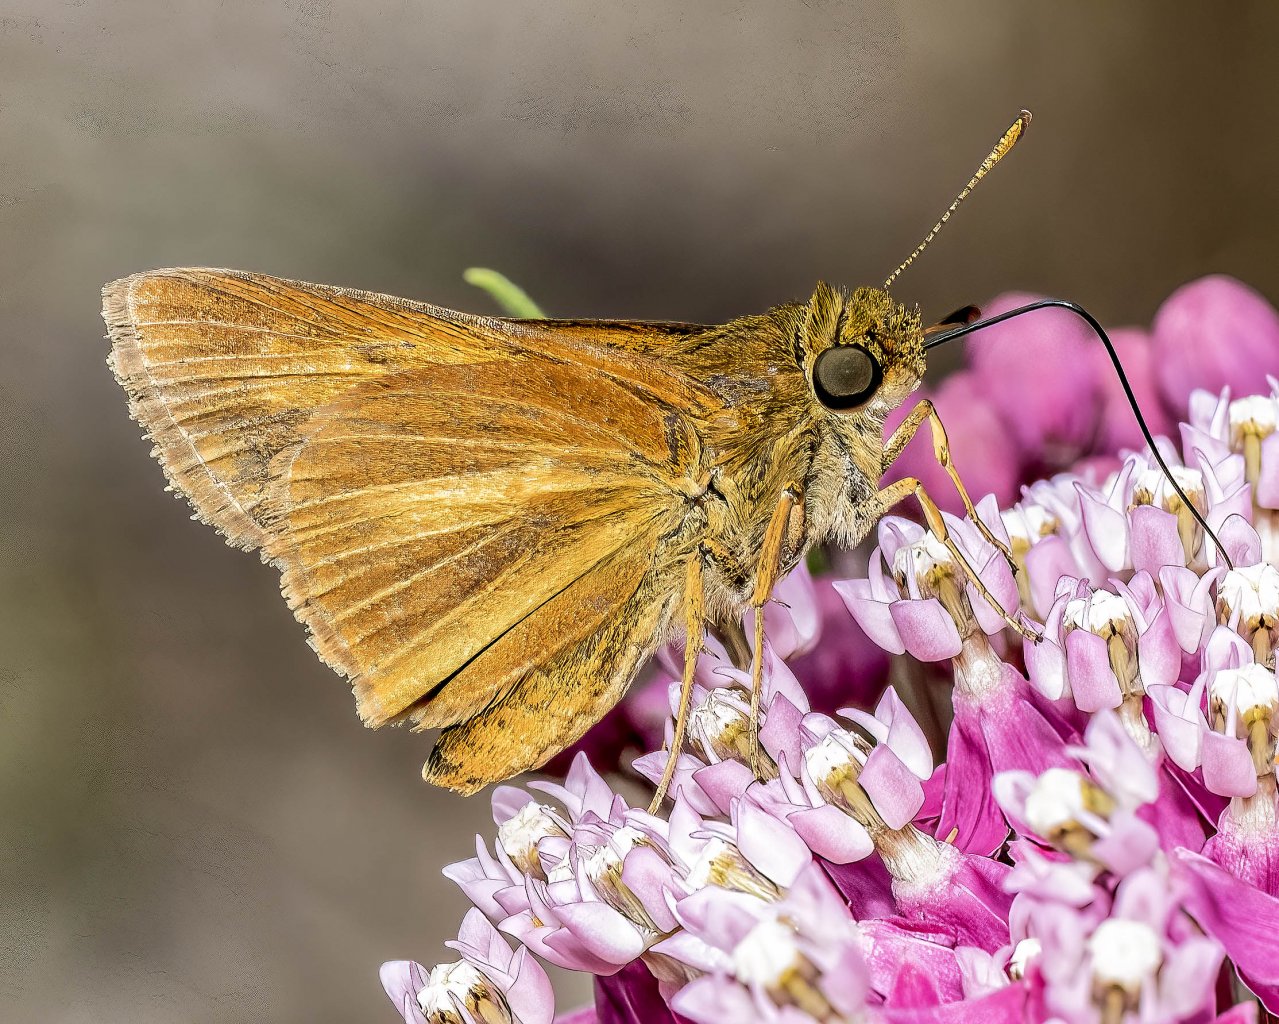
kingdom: Animalia
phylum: Arthropoda
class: Insecta
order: Lepidoptera
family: Hesperiidae
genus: Euphyes
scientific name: Euphyes dion
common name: Dion Skipper
